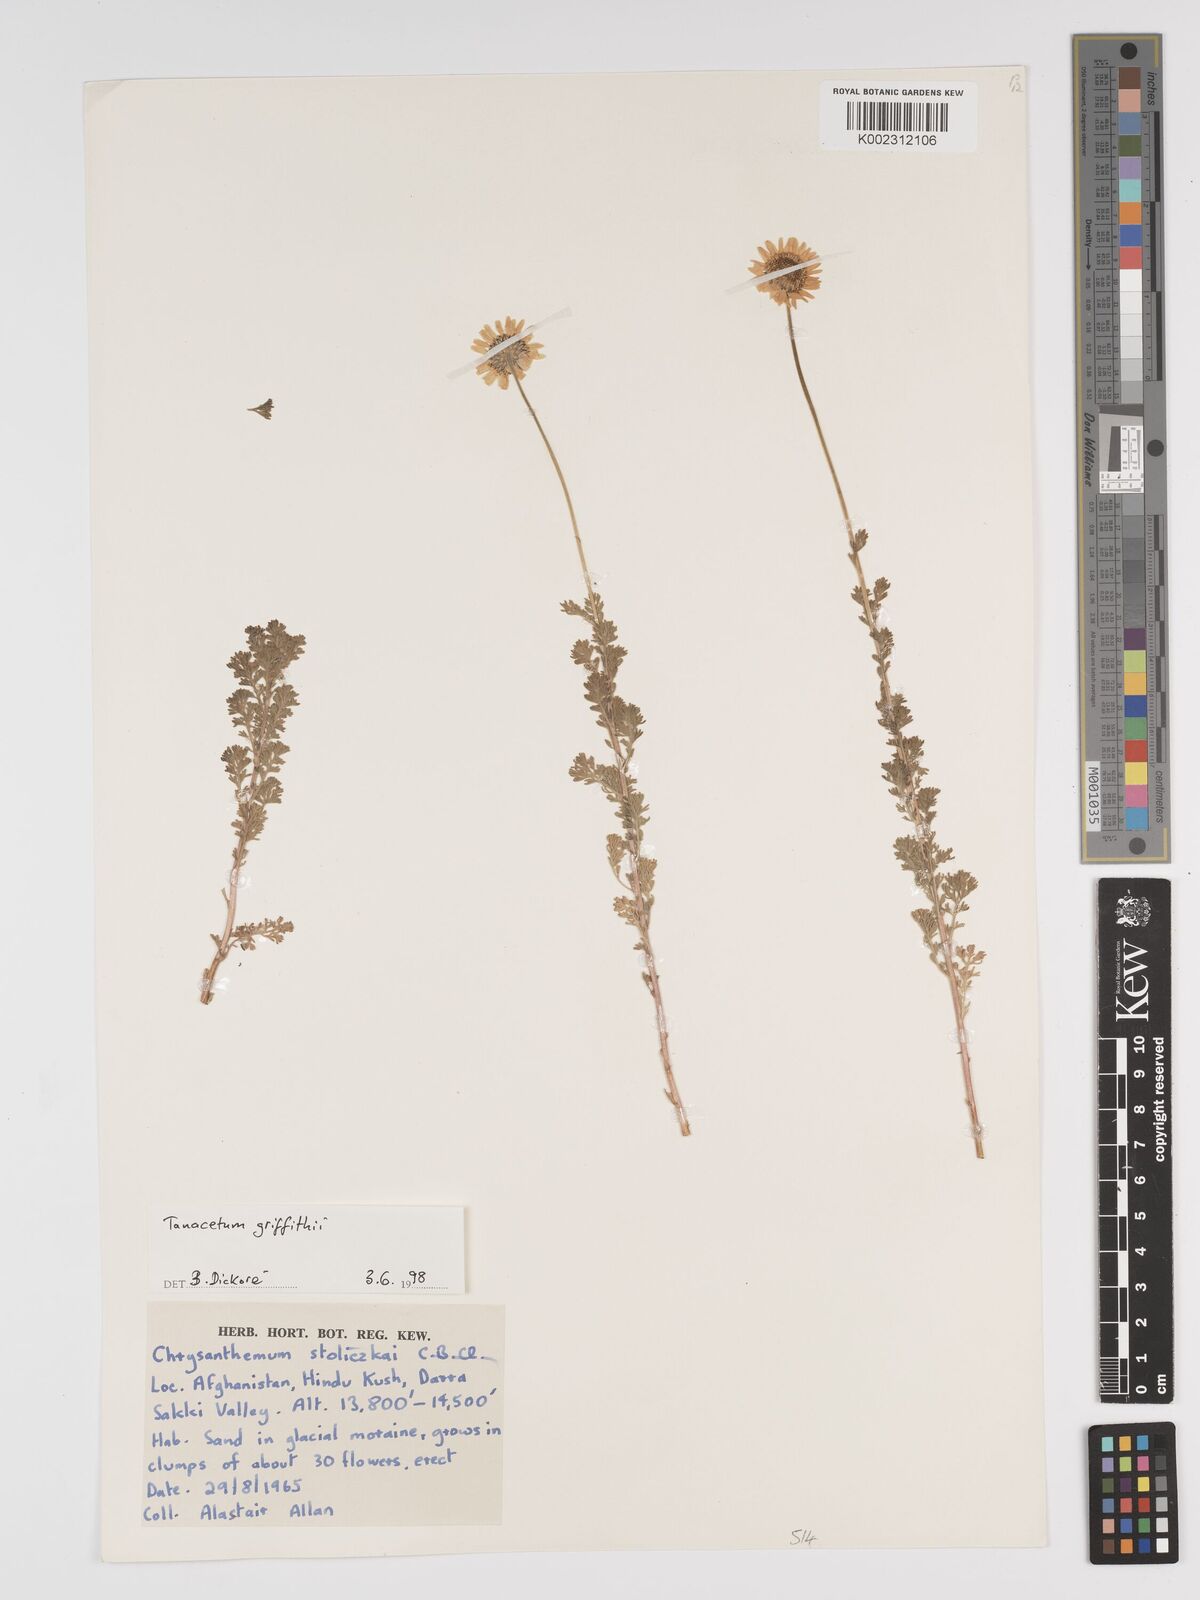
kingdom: Plantae
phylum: Tracheophyta
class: Magnoliopsida
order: Asterales
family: Asteraceae
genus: Tanacetum
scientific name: Tanacetum griffithii
